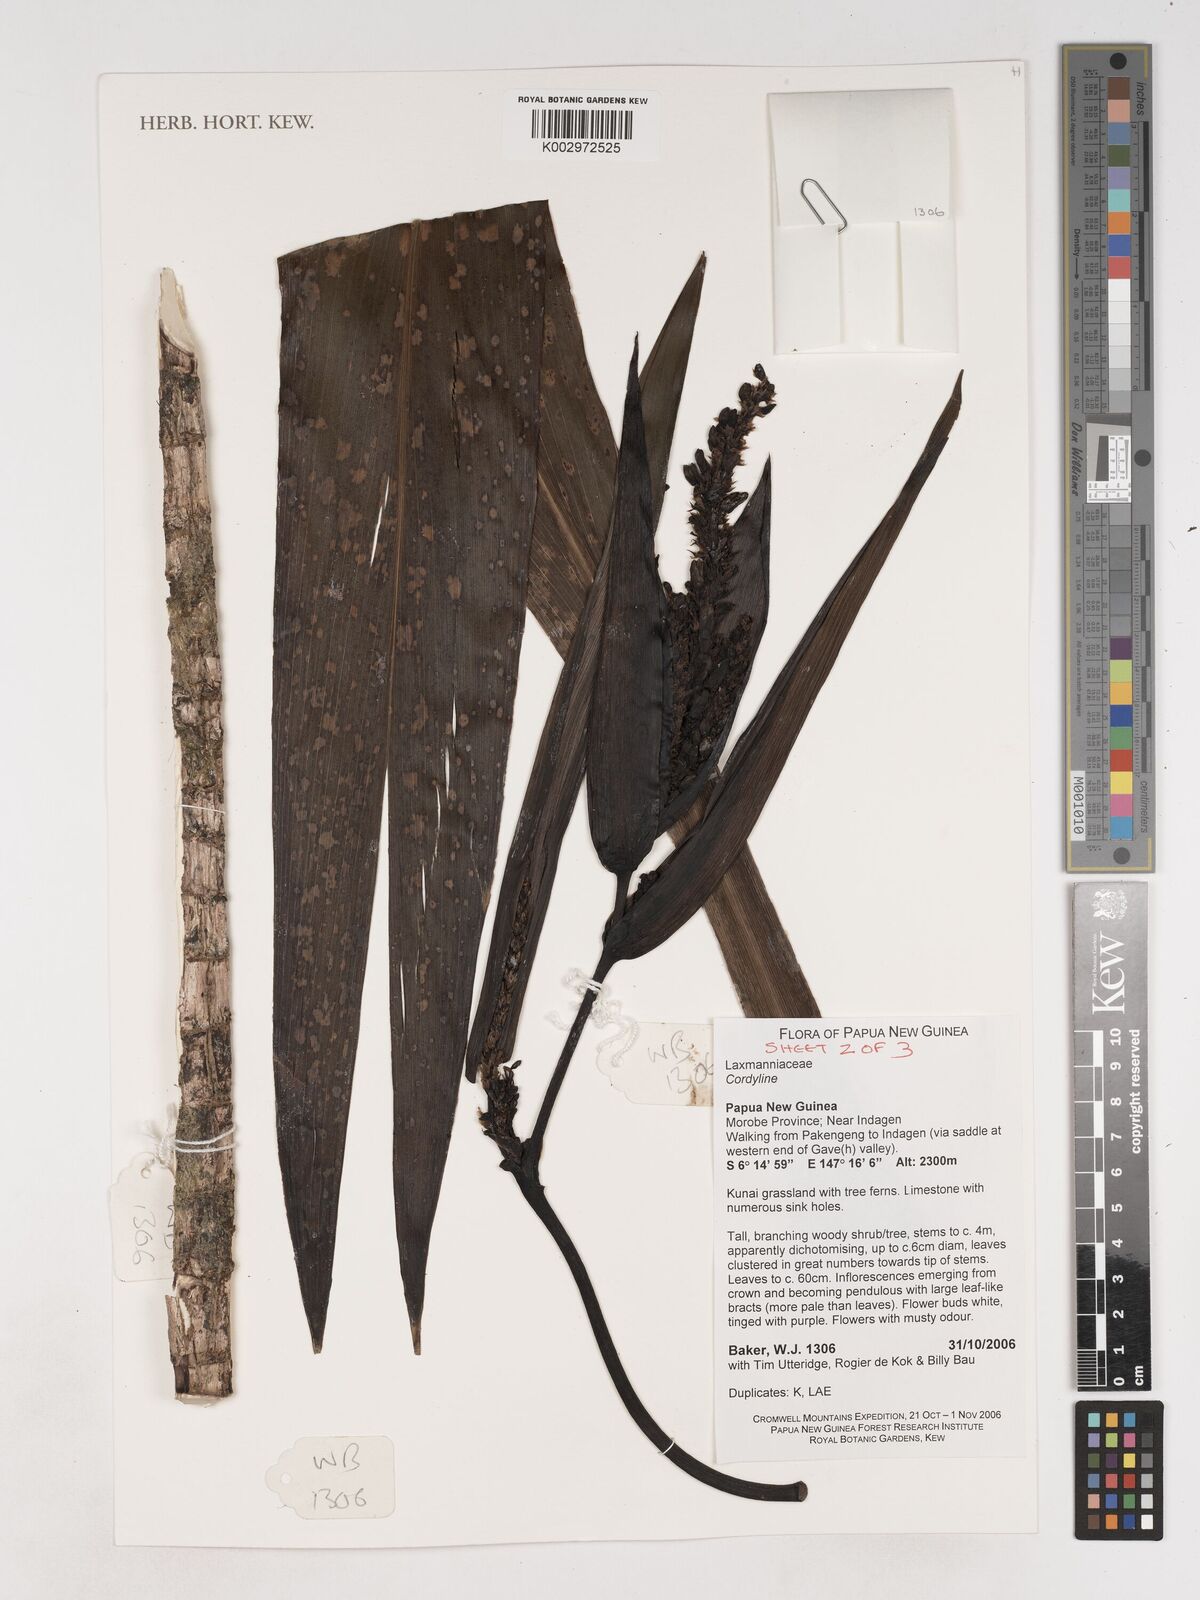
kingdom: Plantae
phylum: Tracheophyta
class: Liliopsida
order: Asparagales
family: Asparagaceae
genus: Cordyline
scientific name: Cordyline
